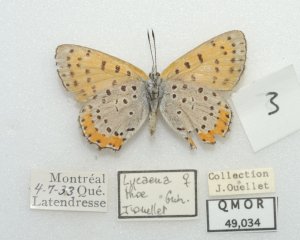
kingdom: Animalia
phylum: Arthropoda
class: Insecta
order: Lepidoptera
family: Sesiidae
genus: Sesia
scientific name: Sesia Lycaena hyllus
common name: Bronze Copper
